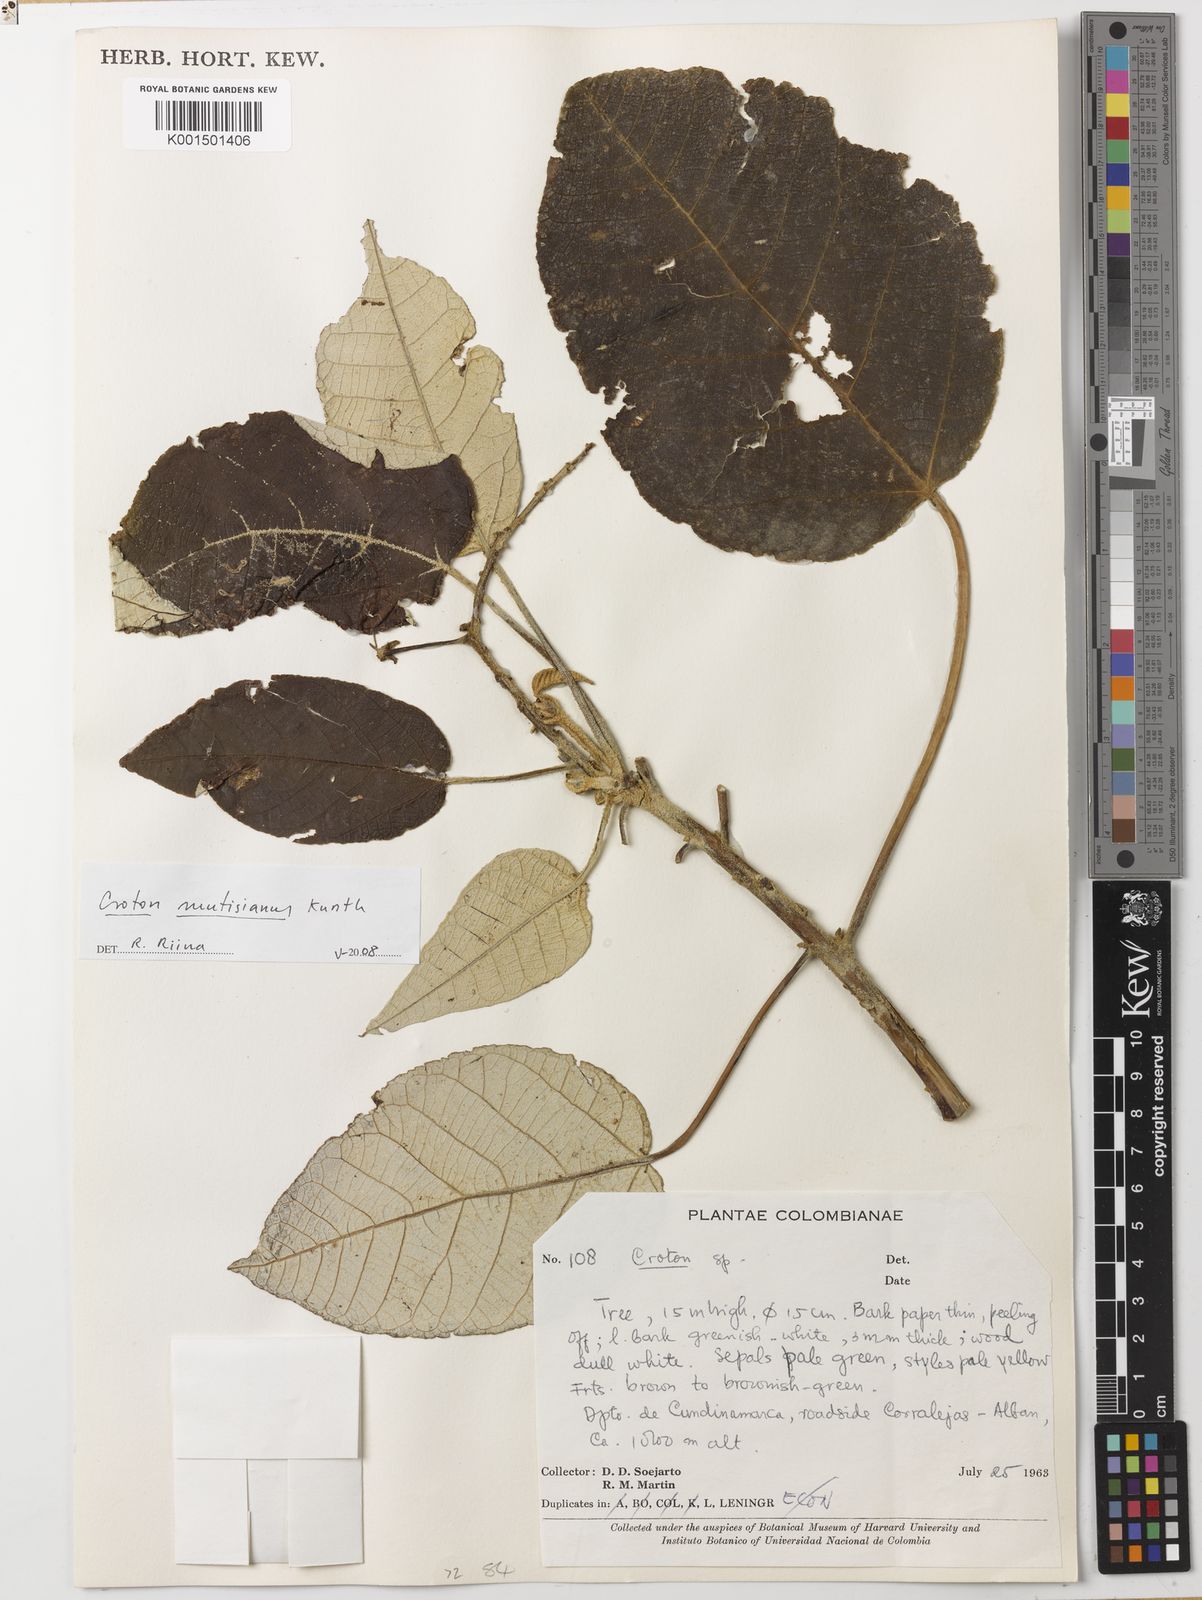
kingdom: Plantae
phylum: Tracheophyta
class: Magnoliopsida
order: Malpighiales
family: Euphorbiaceae
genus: Croton
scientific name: Croton mutisianus
